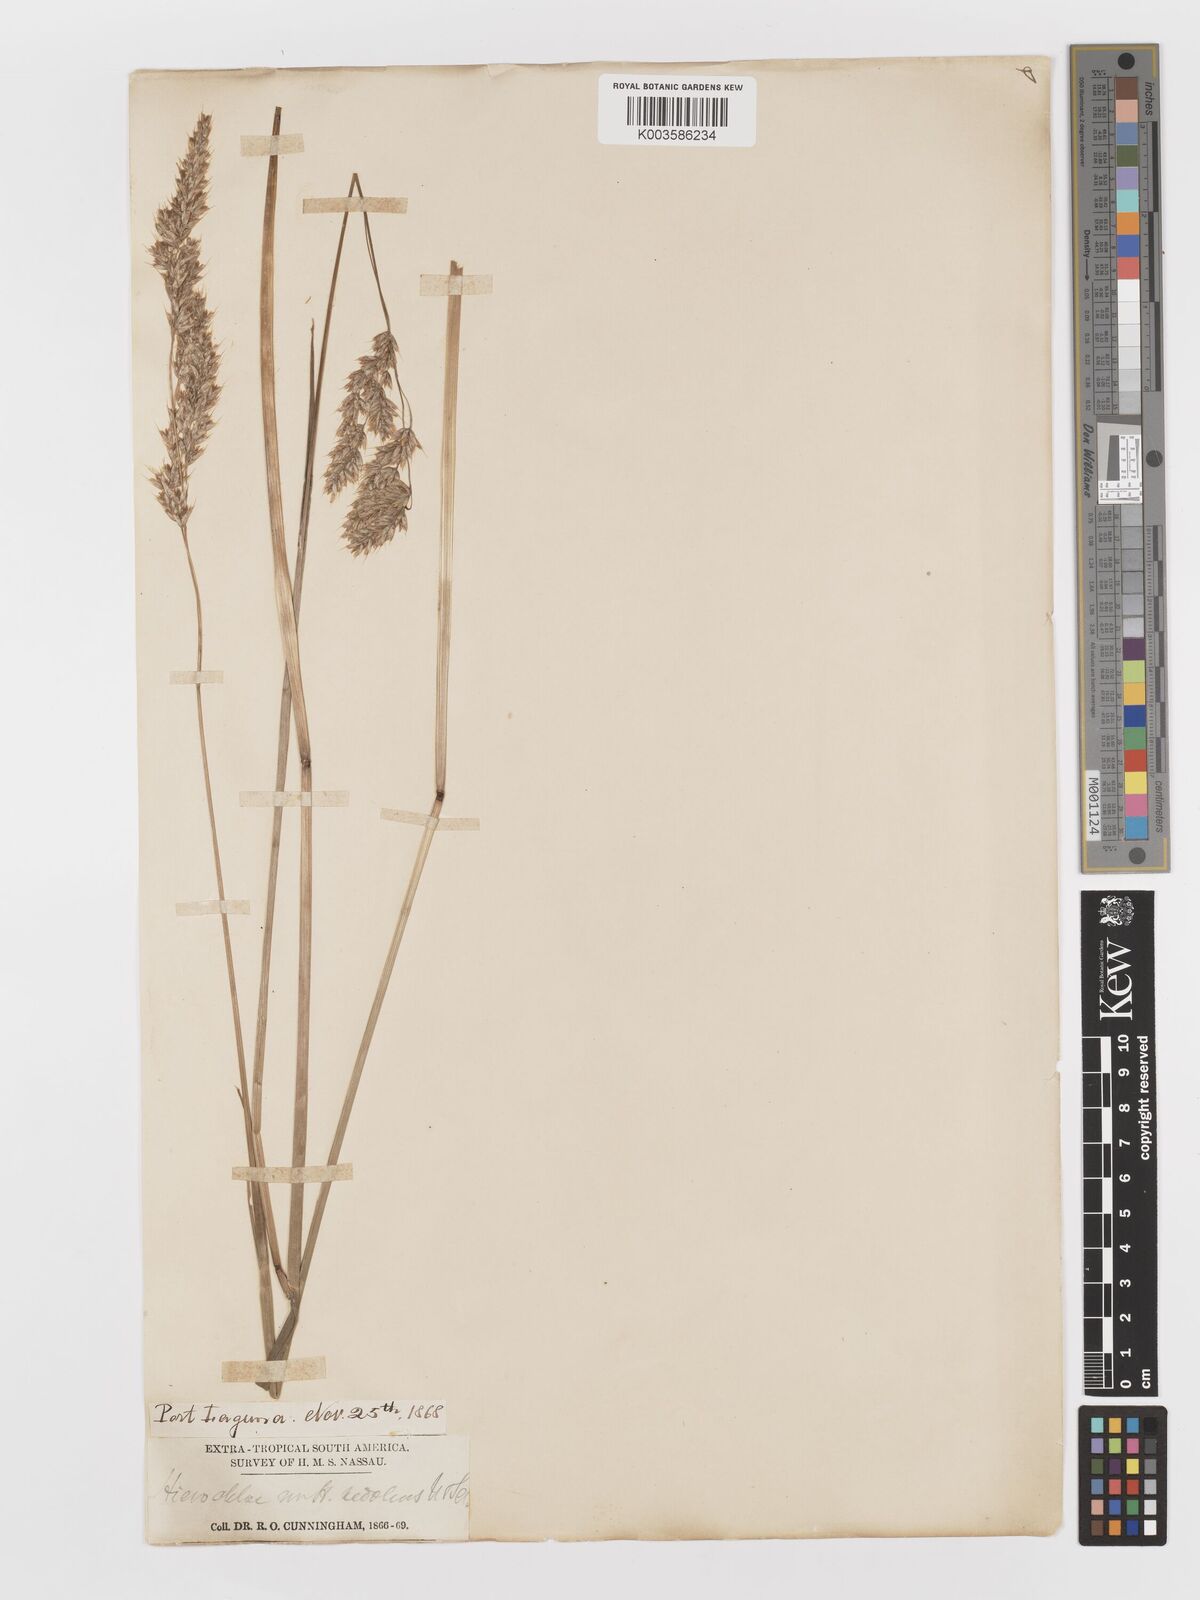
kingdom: Plantae
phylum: Tracheophyta
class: Liliopsida
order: Poales
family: Poaceae
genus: Anthoxanthum
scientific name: Anthoxanthum redolens
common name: Sweet holy grass
